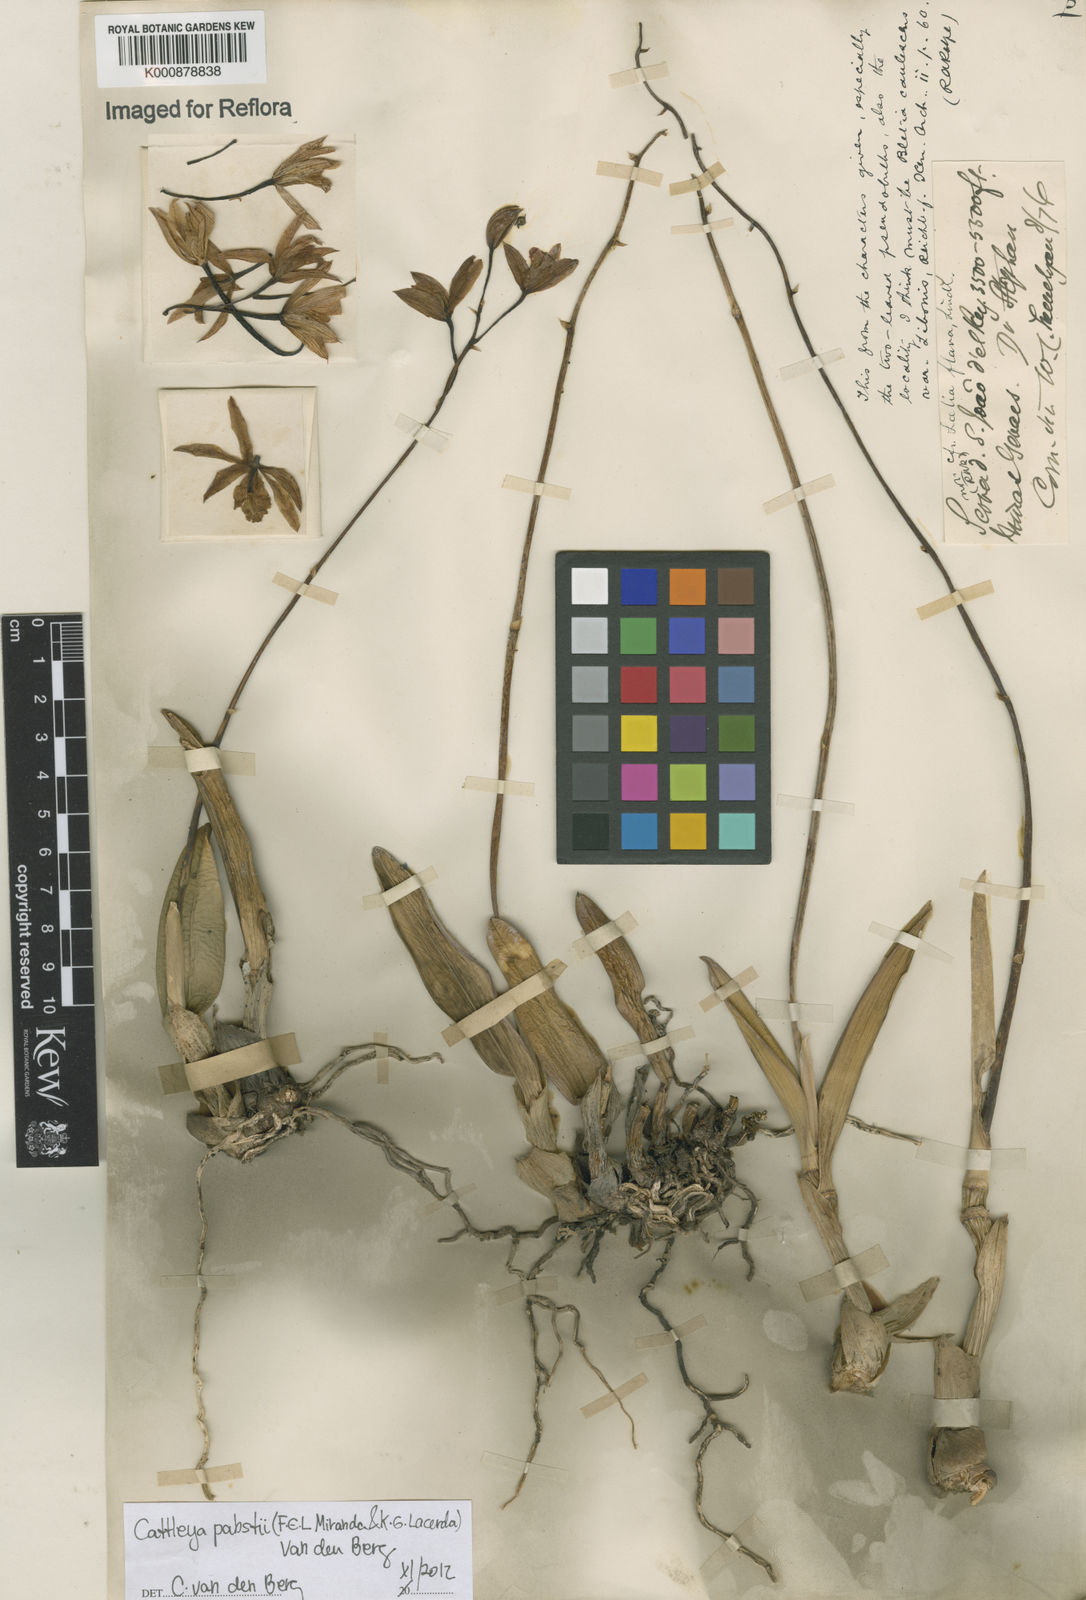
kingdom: Plantae
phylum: Tracheophyta
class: Liliopsida
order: Asparagales
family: Orchidaceae
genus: Cattleya
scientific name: Cattleya pabstii
